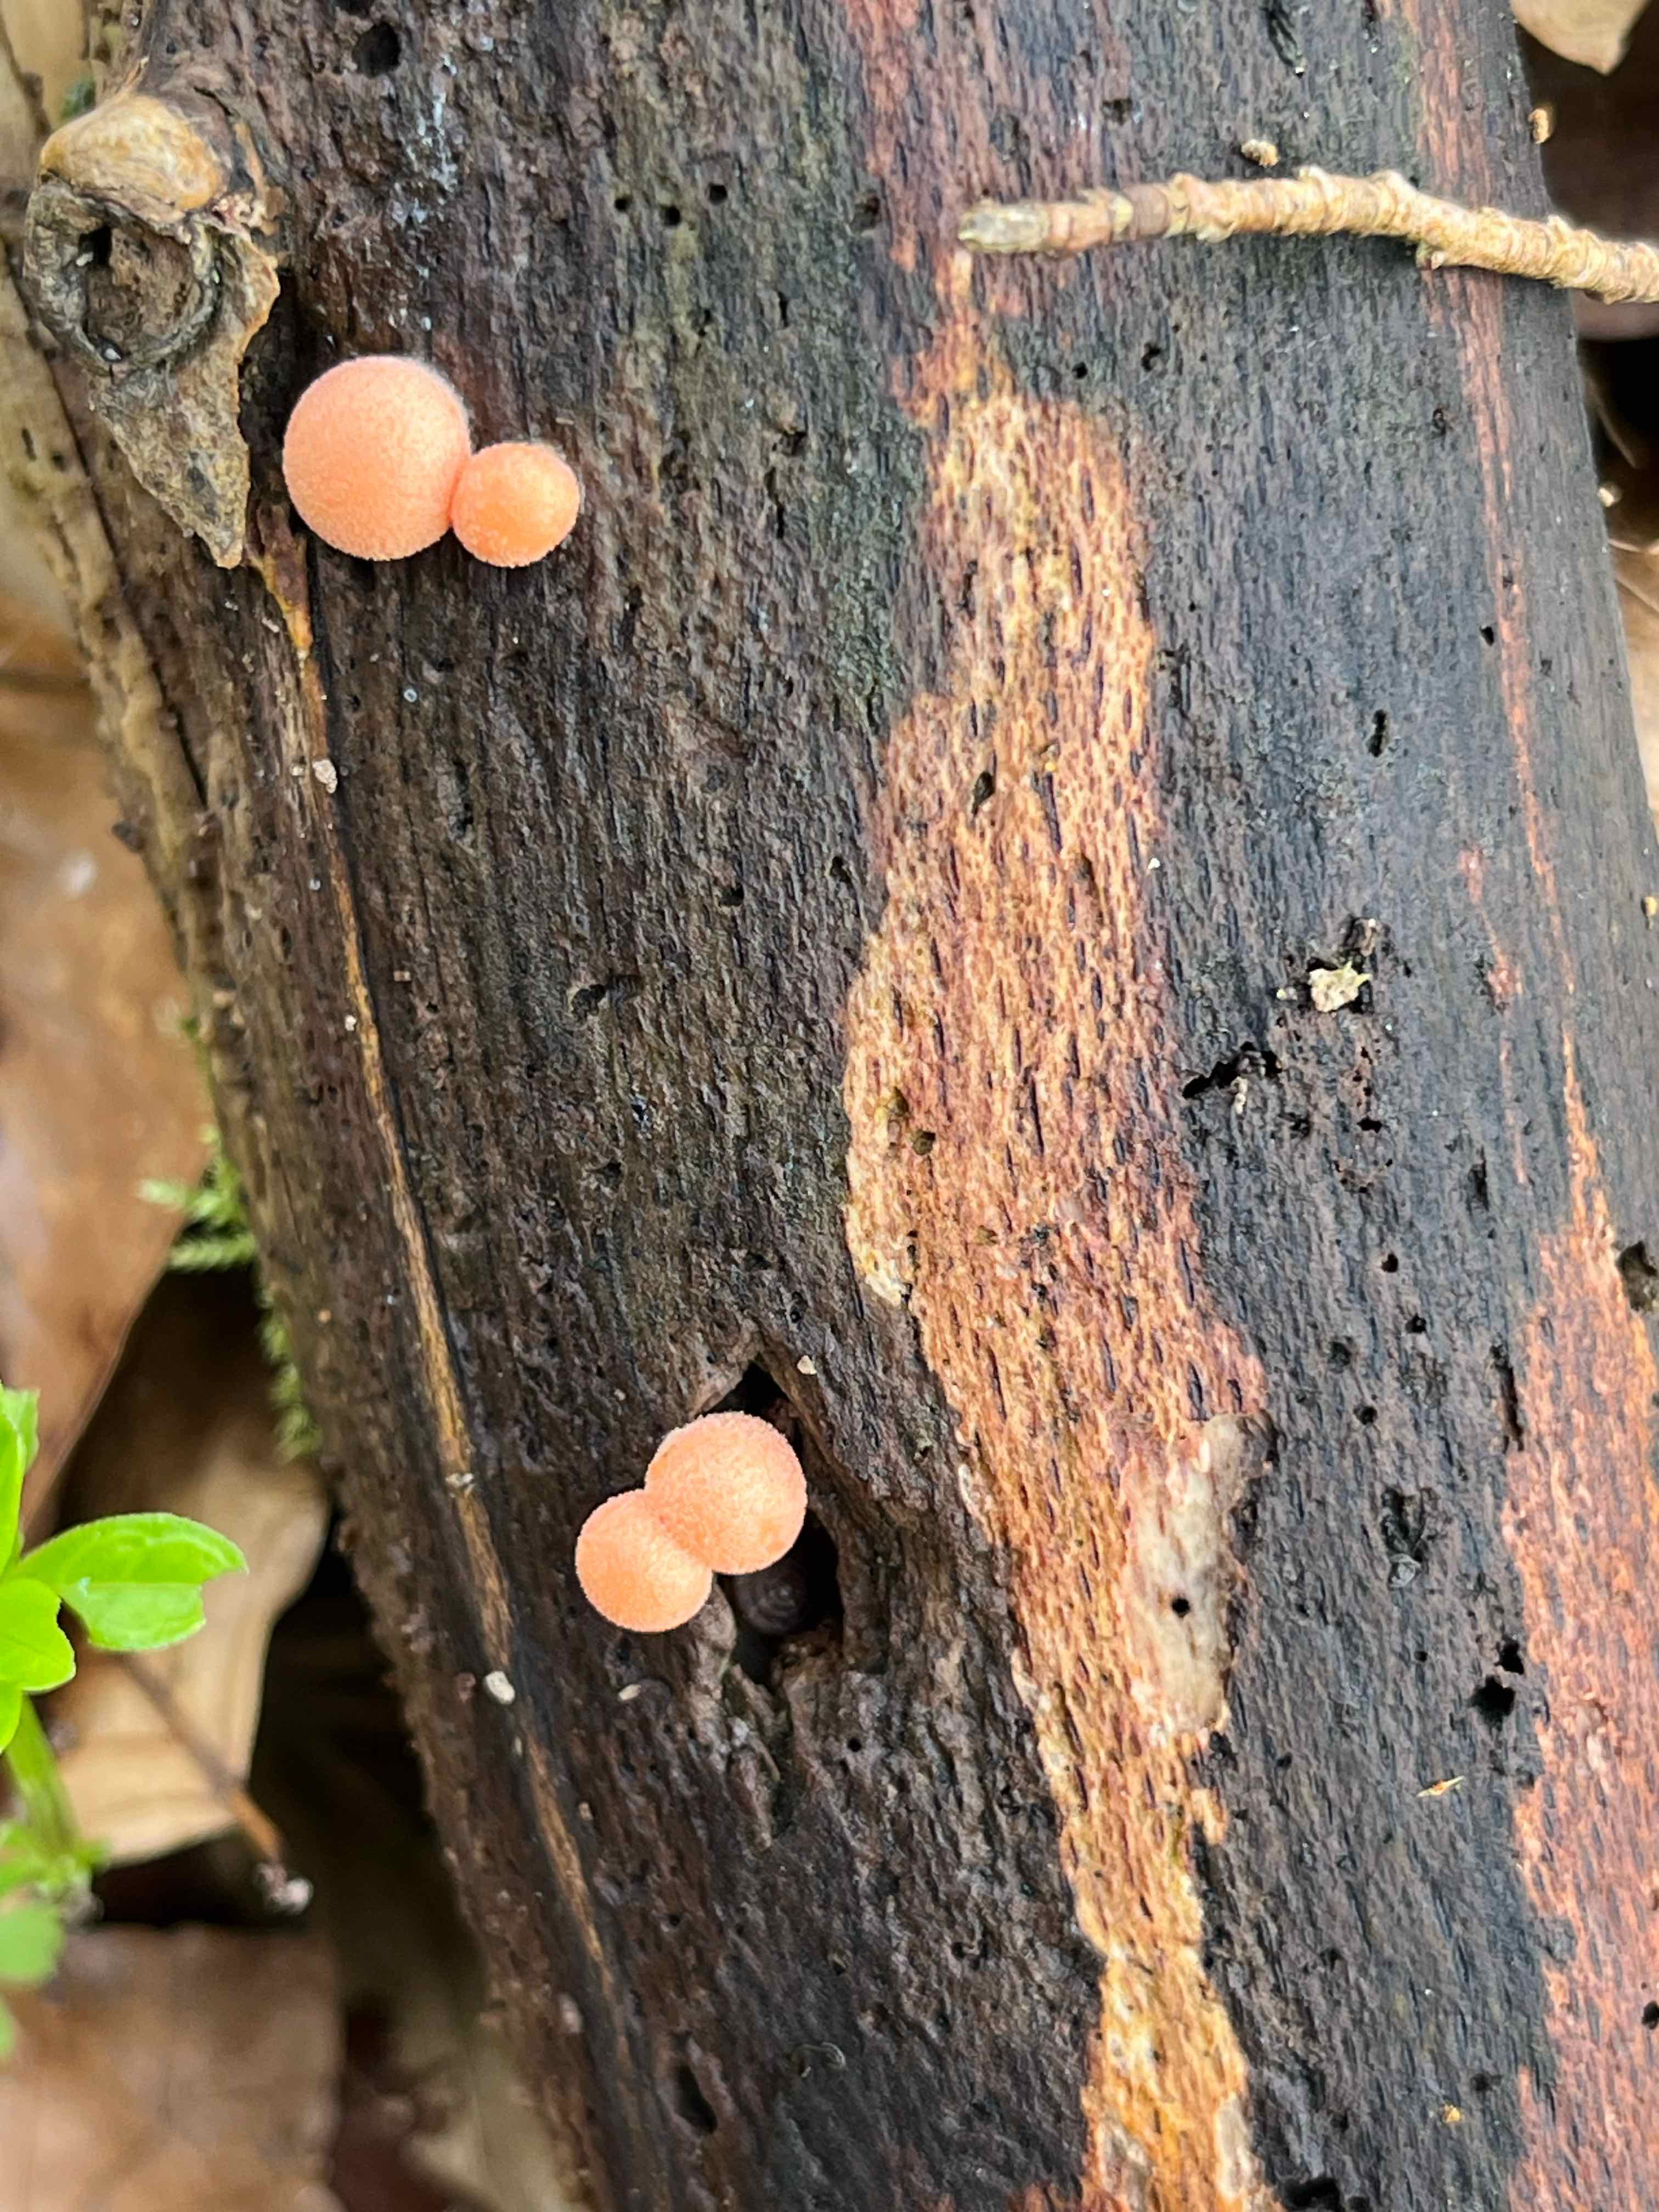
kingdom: Protozoa
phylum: Mycetozoa
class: Myxomycetes
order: Cribrariales
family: Tubiferaceae
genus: Lycogala
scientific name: Lycogala
